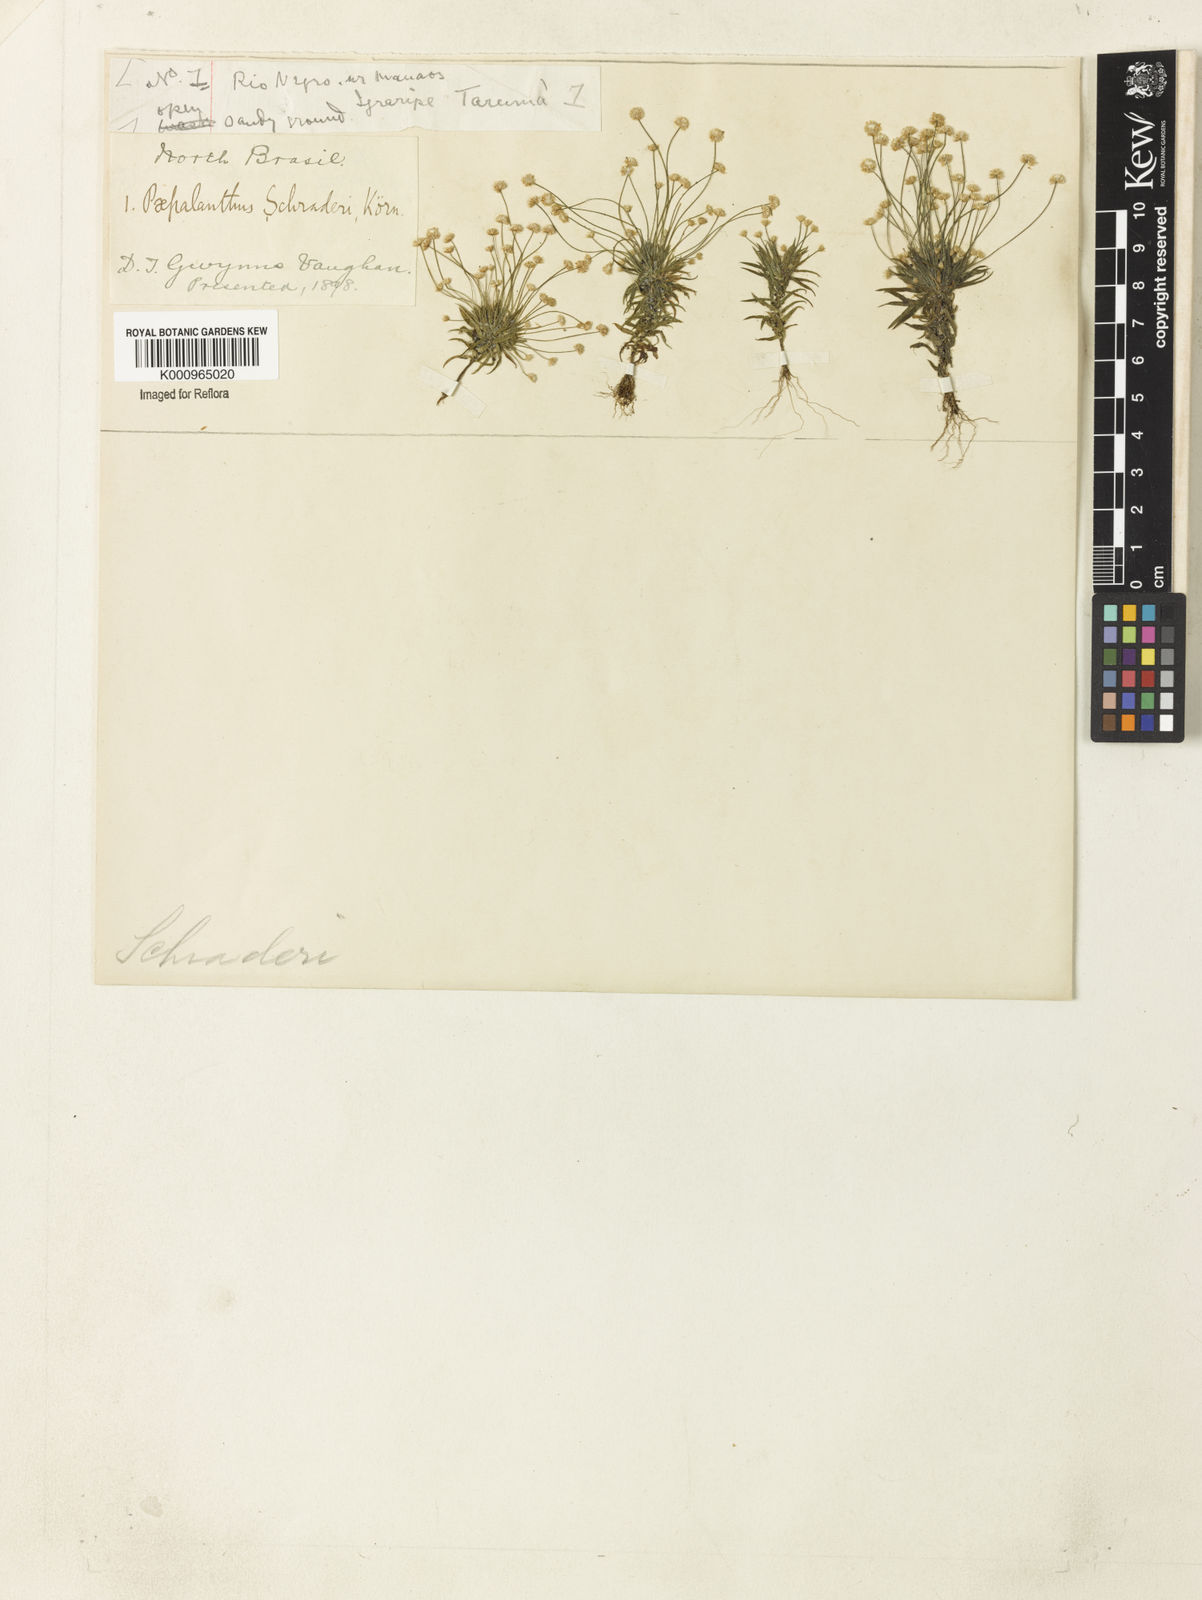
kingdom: Plantae
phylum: Tracheophyta
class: Liliopsida
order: Poales
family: Eriocaulaceae
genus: Paepalanthus
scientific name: Paepalanthus bifidus
